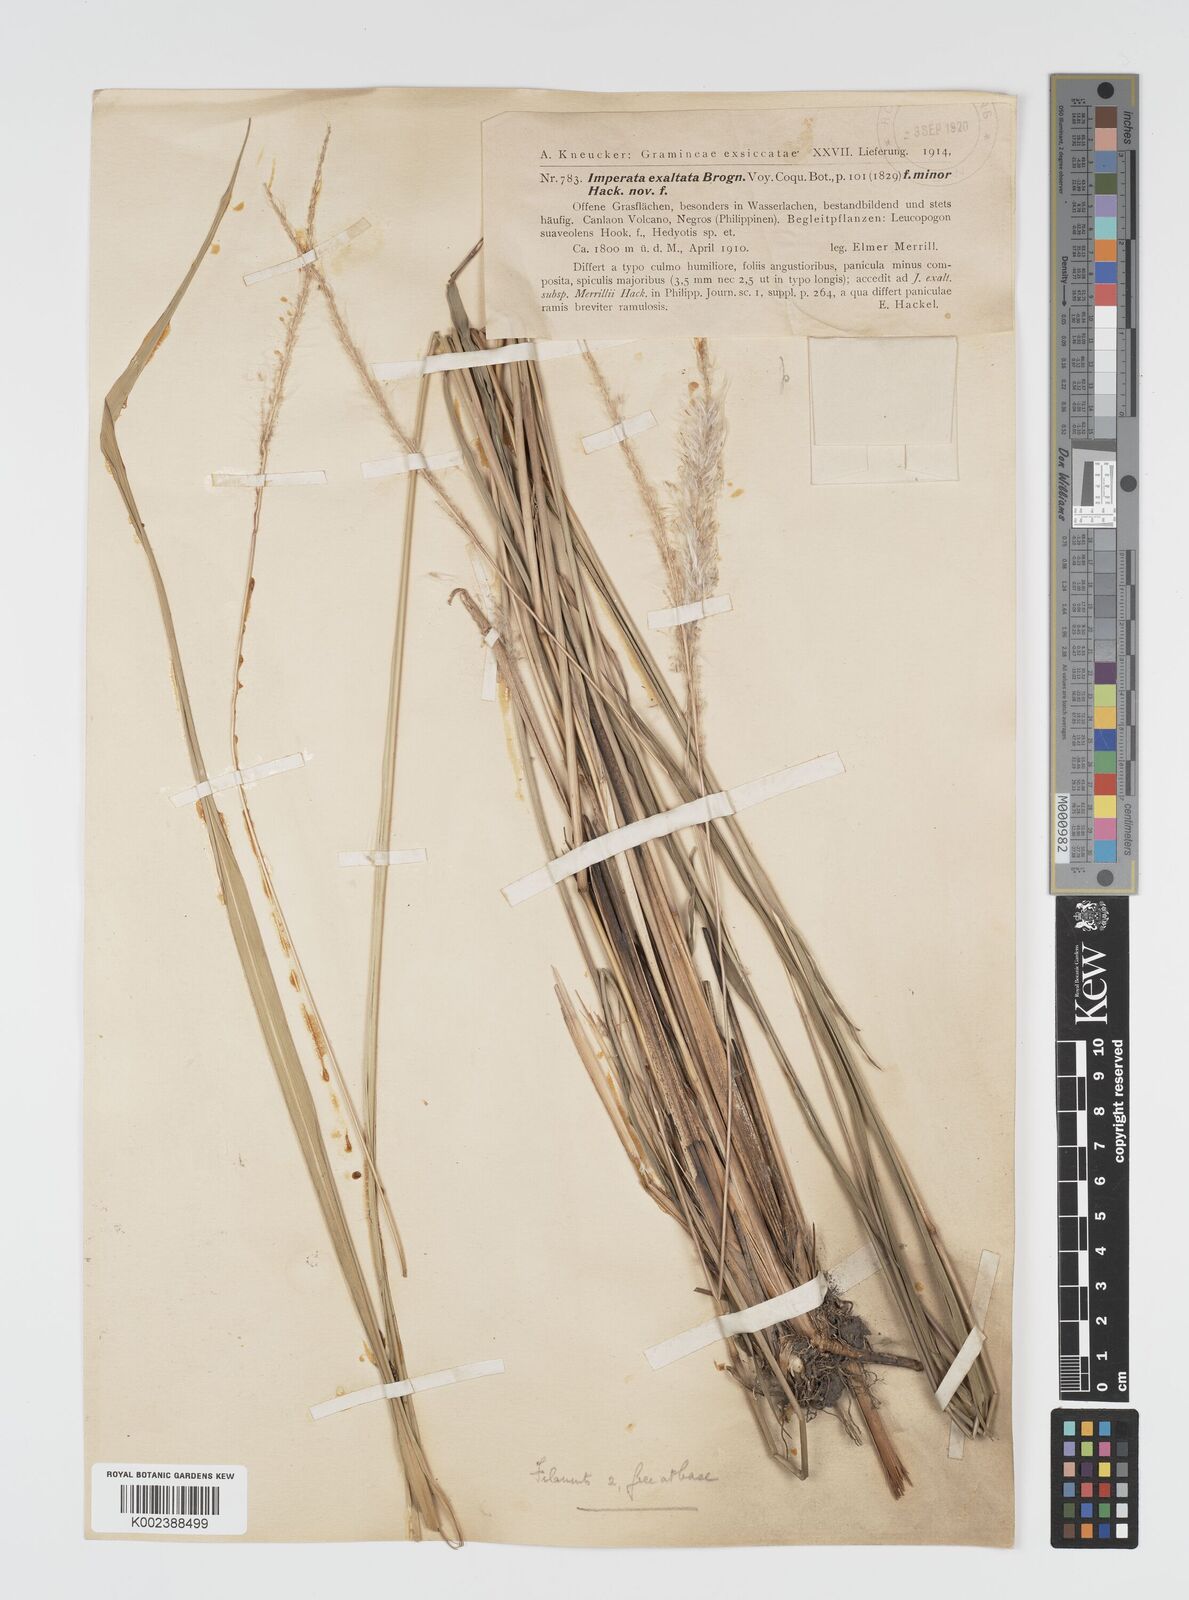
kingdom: Plantae
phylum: Tracheophyta
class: Liliopsida
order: Poales
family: Poaceae
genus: Imperata
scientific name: Imperata cylindrica
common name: Cogongrass
